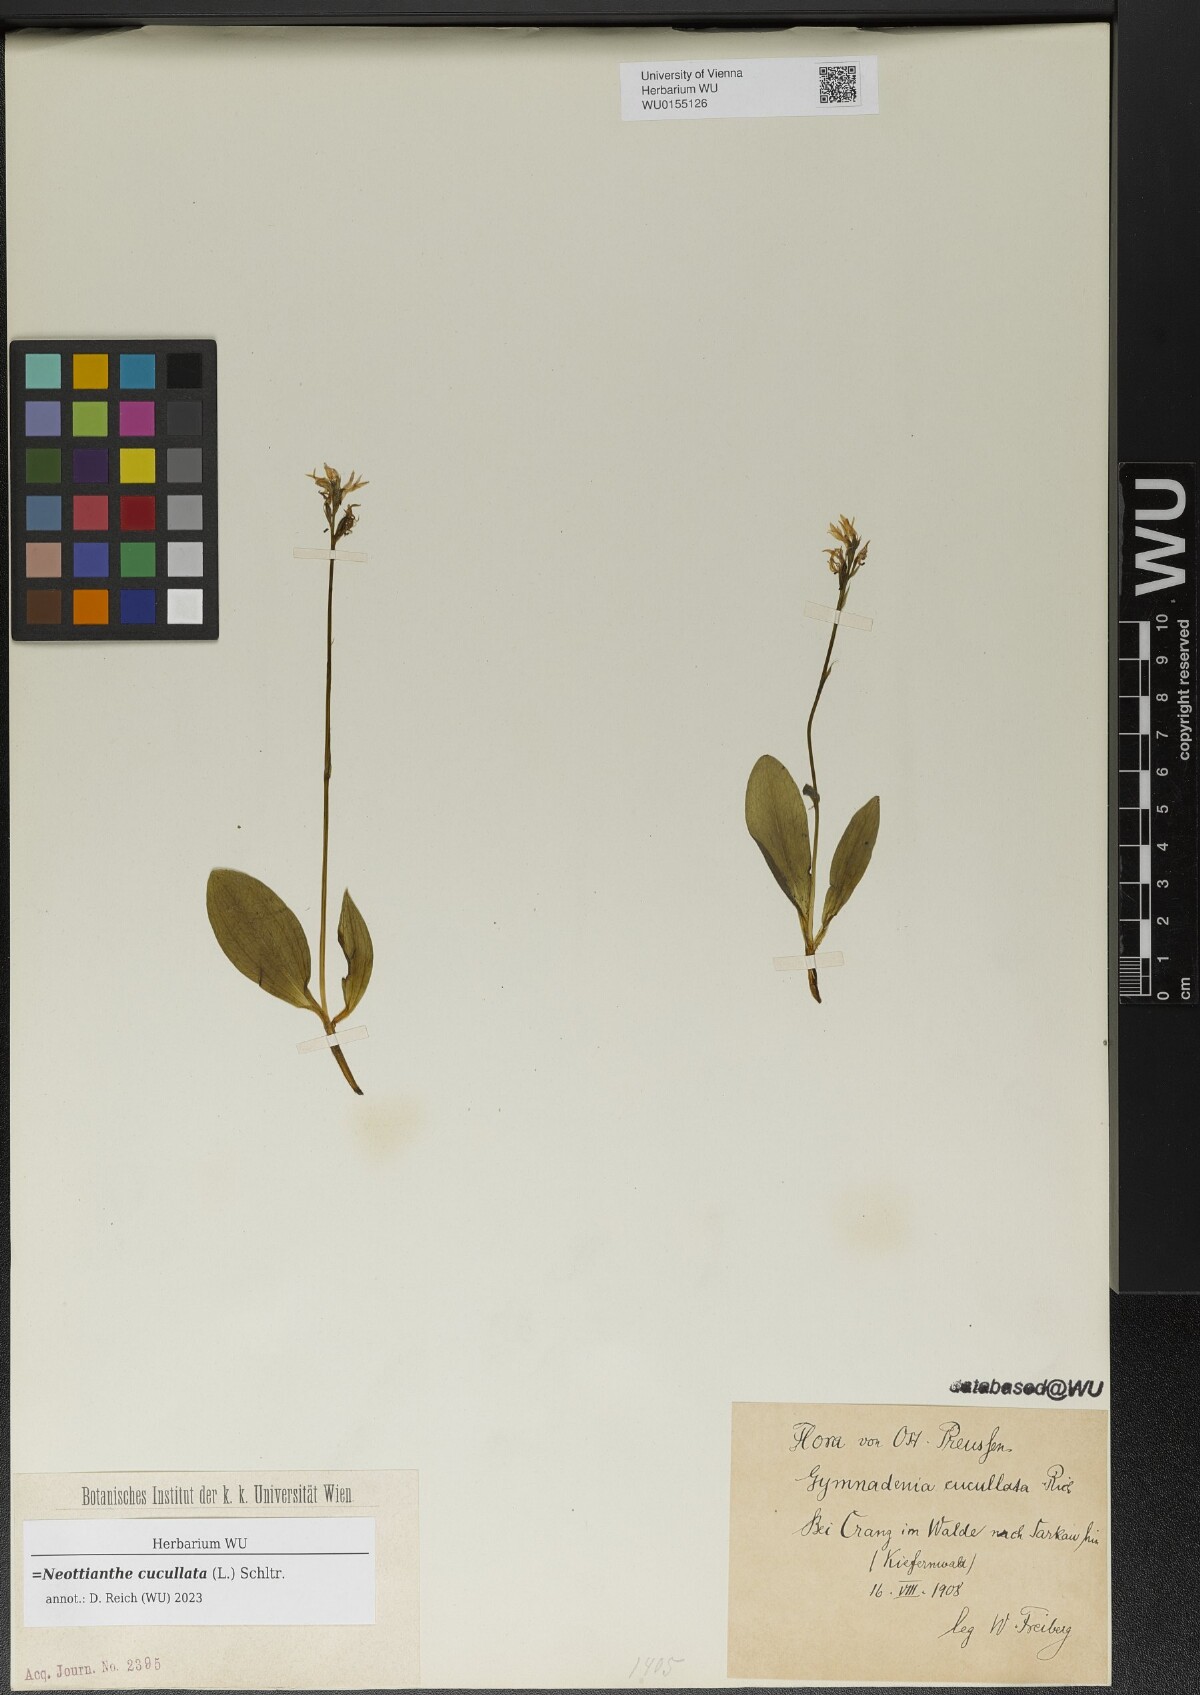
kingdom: Plantae
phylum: Tracheophyta
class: Liliopsida
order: Asparagales
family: Orchidaceae
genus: Hemipilia
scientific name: Hemipilia cucullata
